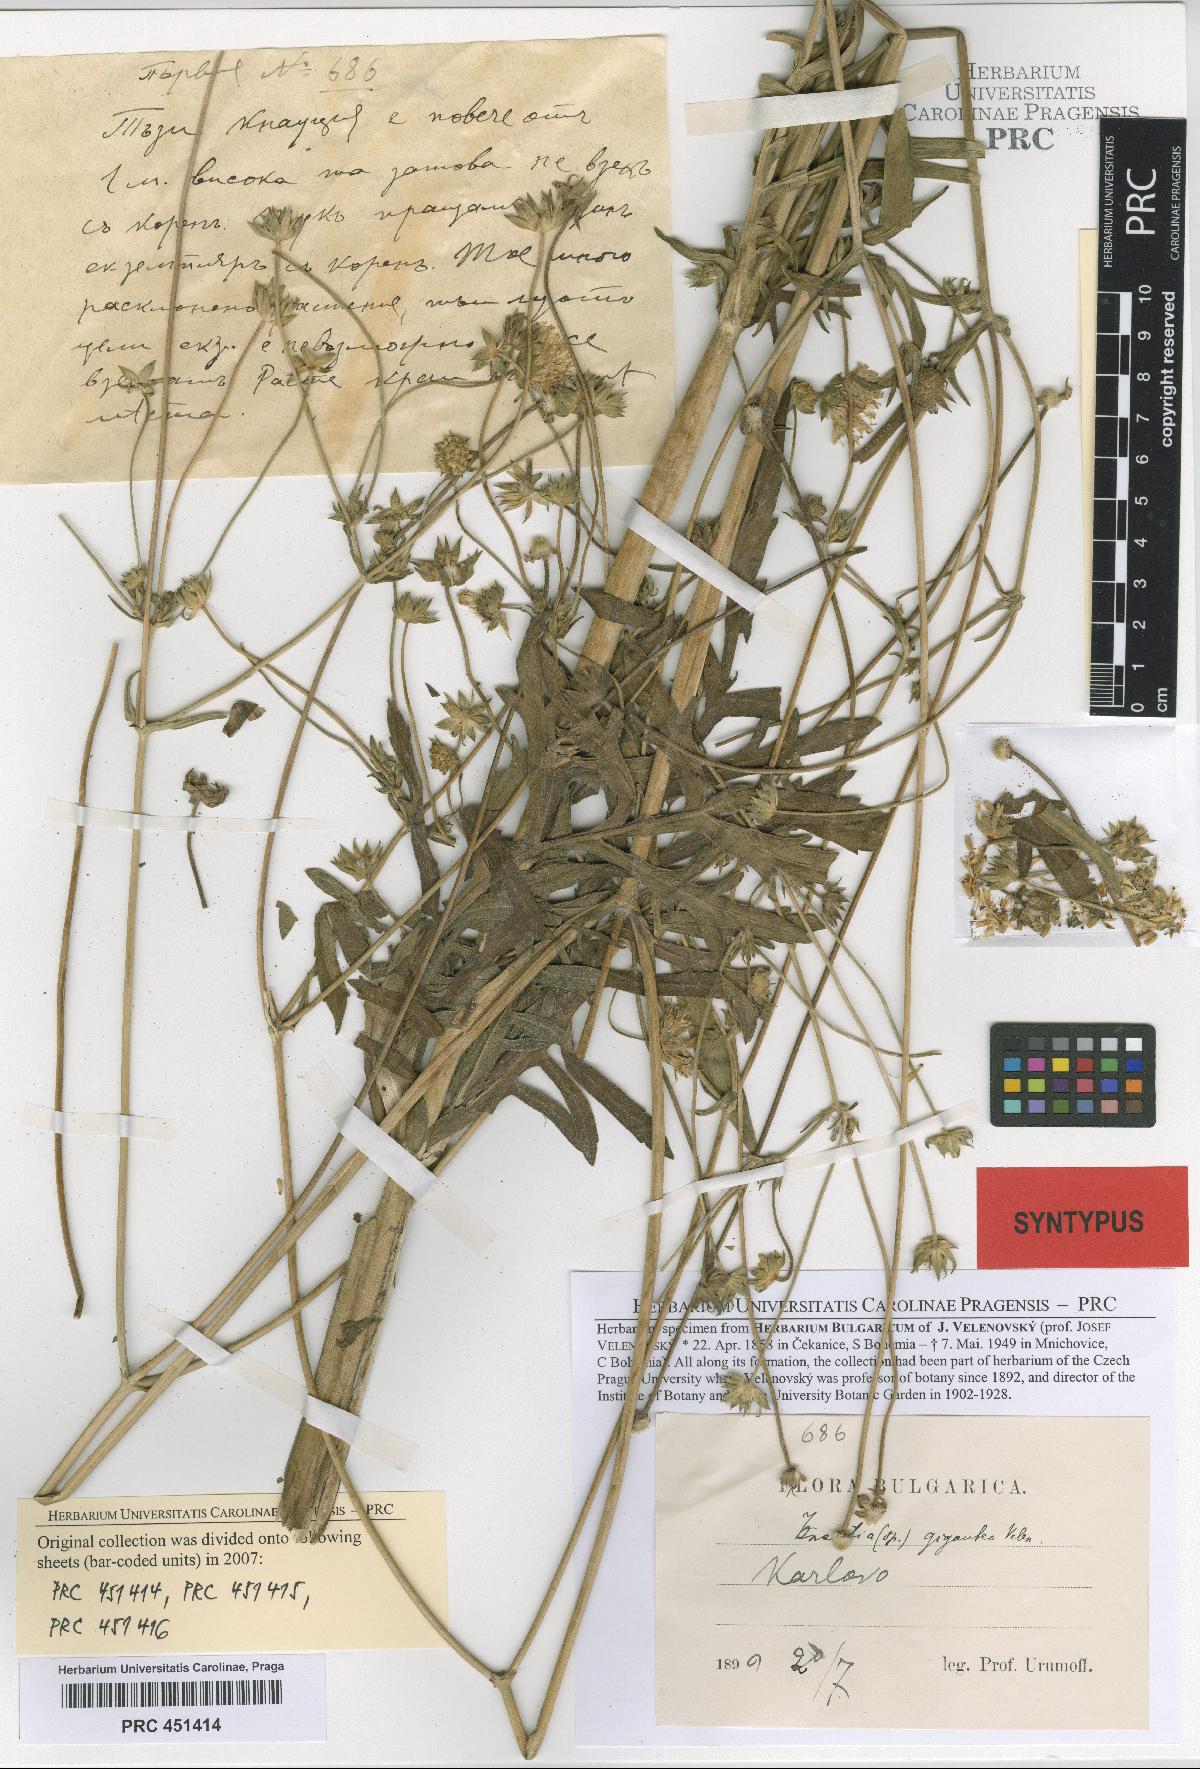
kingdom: Plantae
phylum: Tracheophyta
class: Magnoliopsida
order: Dipsacales
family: Caprifoliaceae
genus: Knautia
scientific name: Knautia collina
